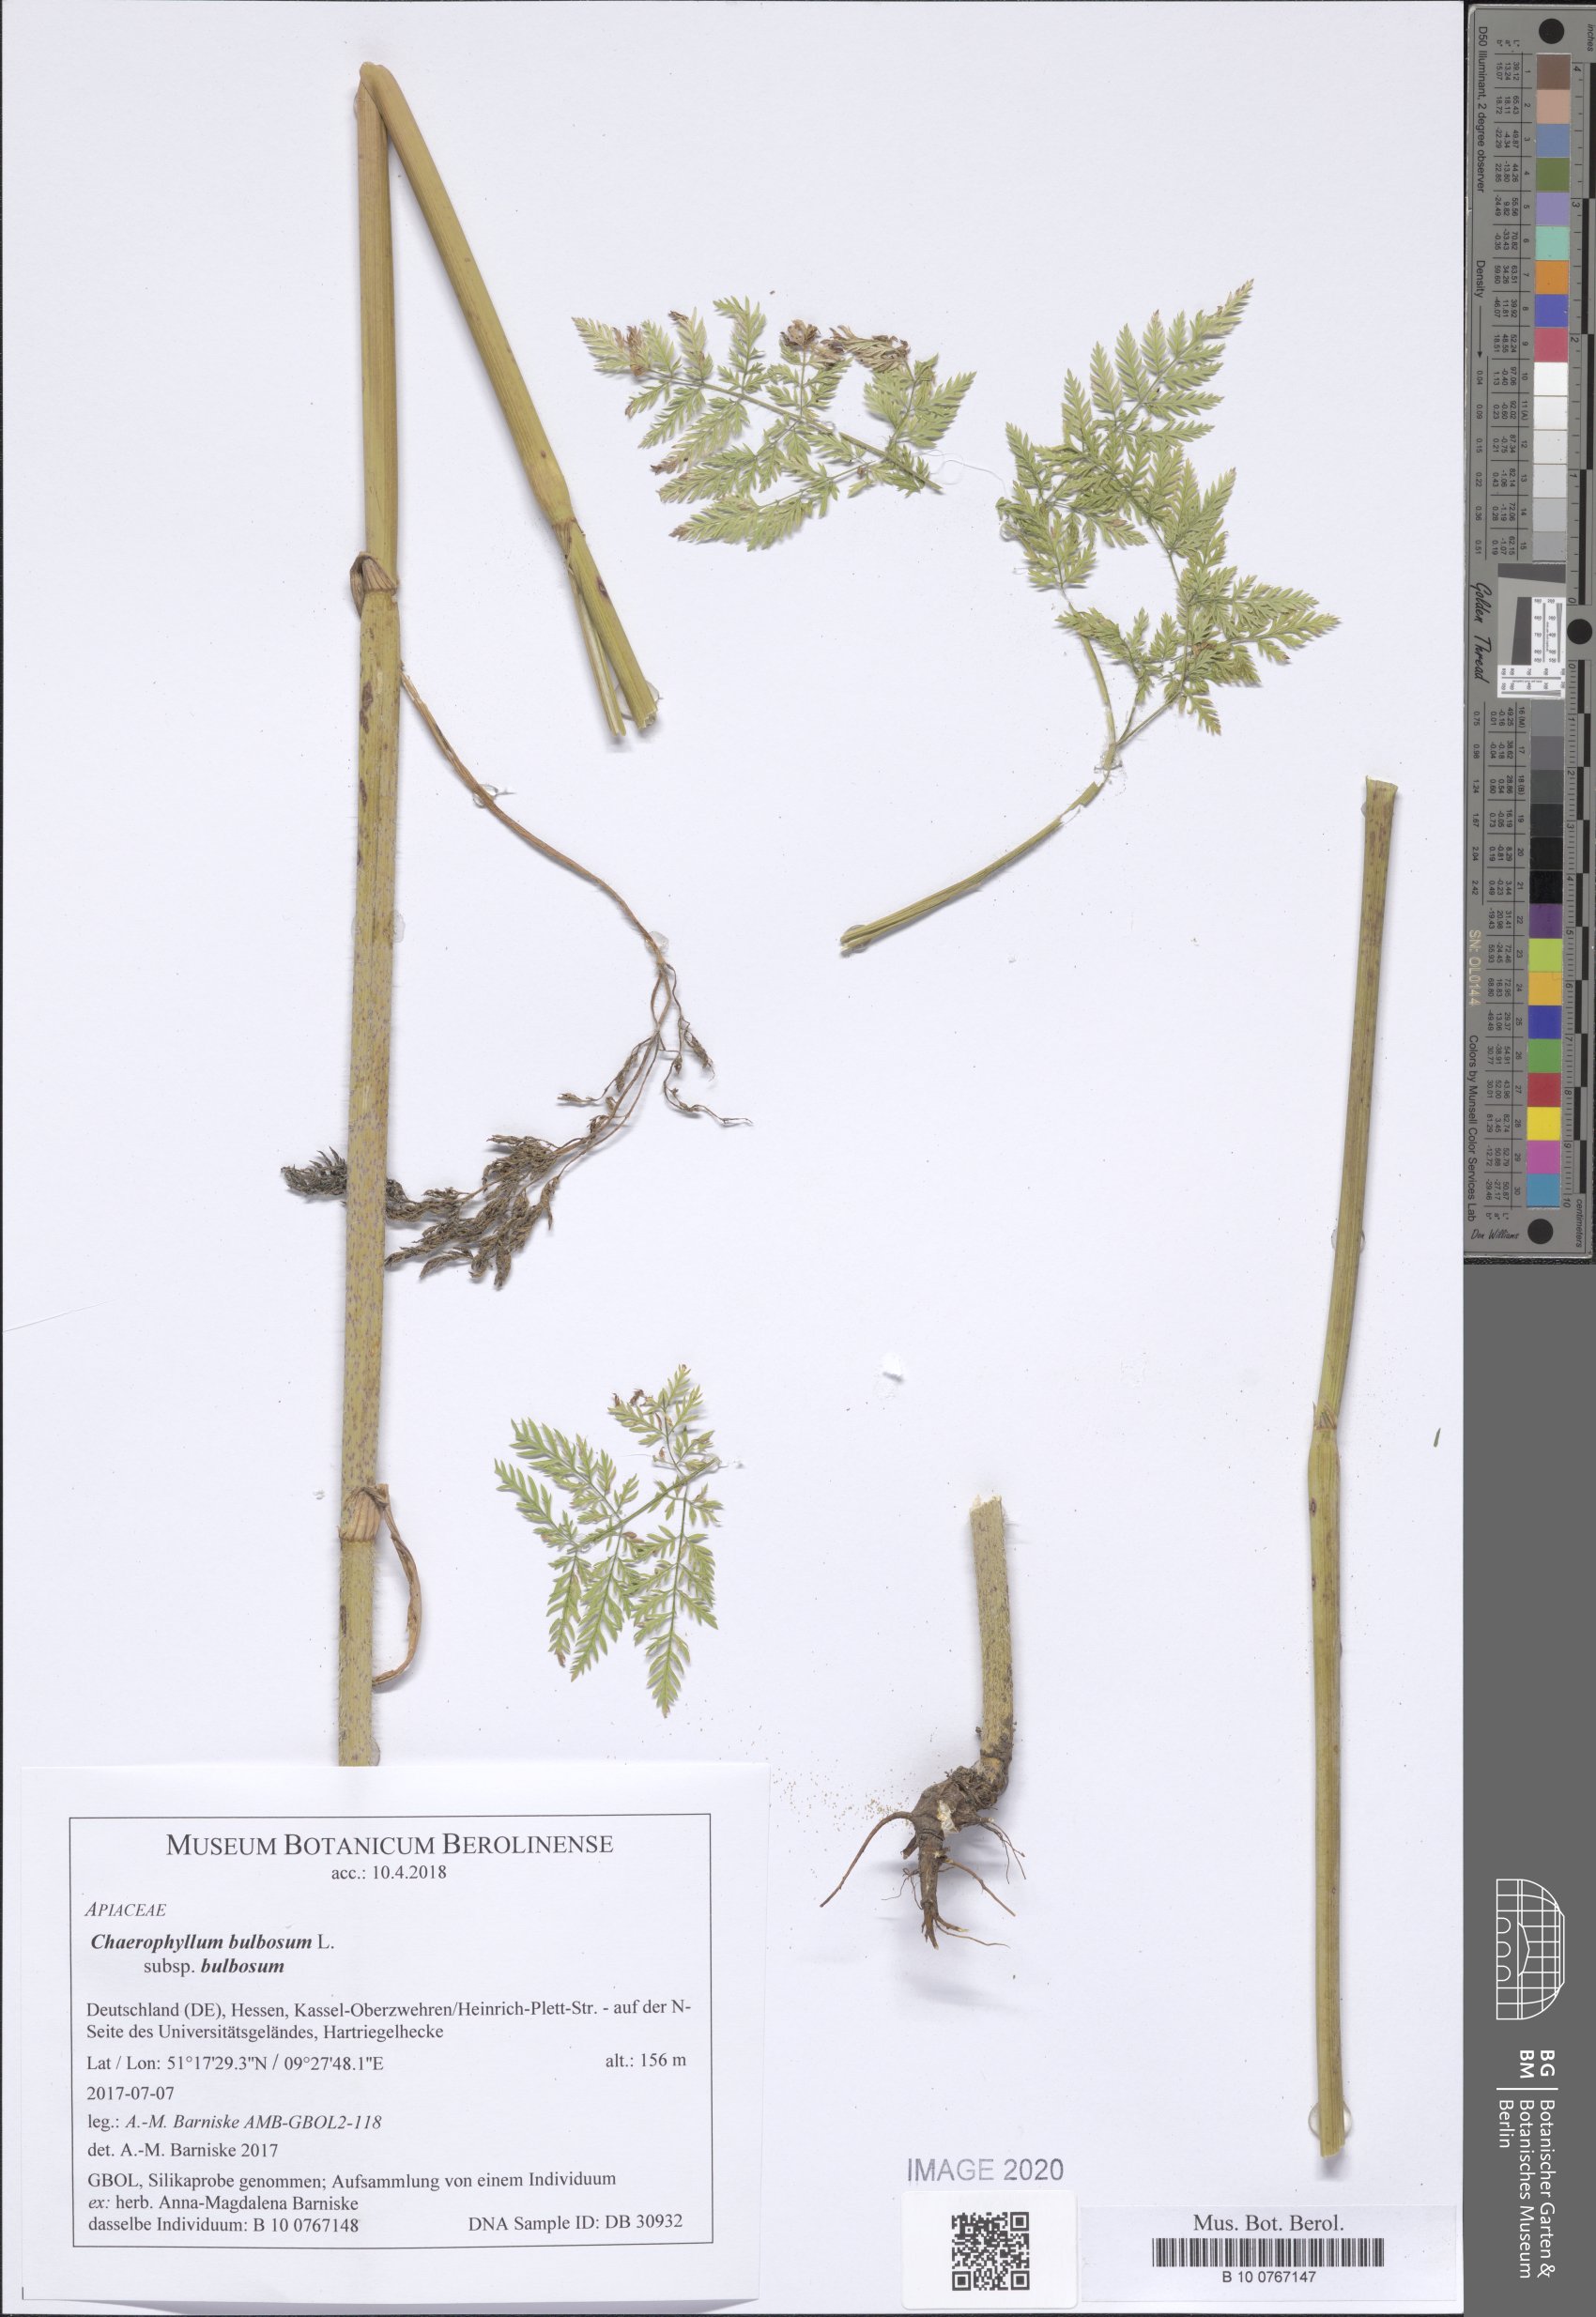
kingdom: Plantae
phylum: Tracheophyta
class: Magnoliopsida
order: Apiales
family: Apiaceae
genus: Chaerophyllum
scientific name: Chaerophyllum bulbosum
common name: Bulbous chervil
